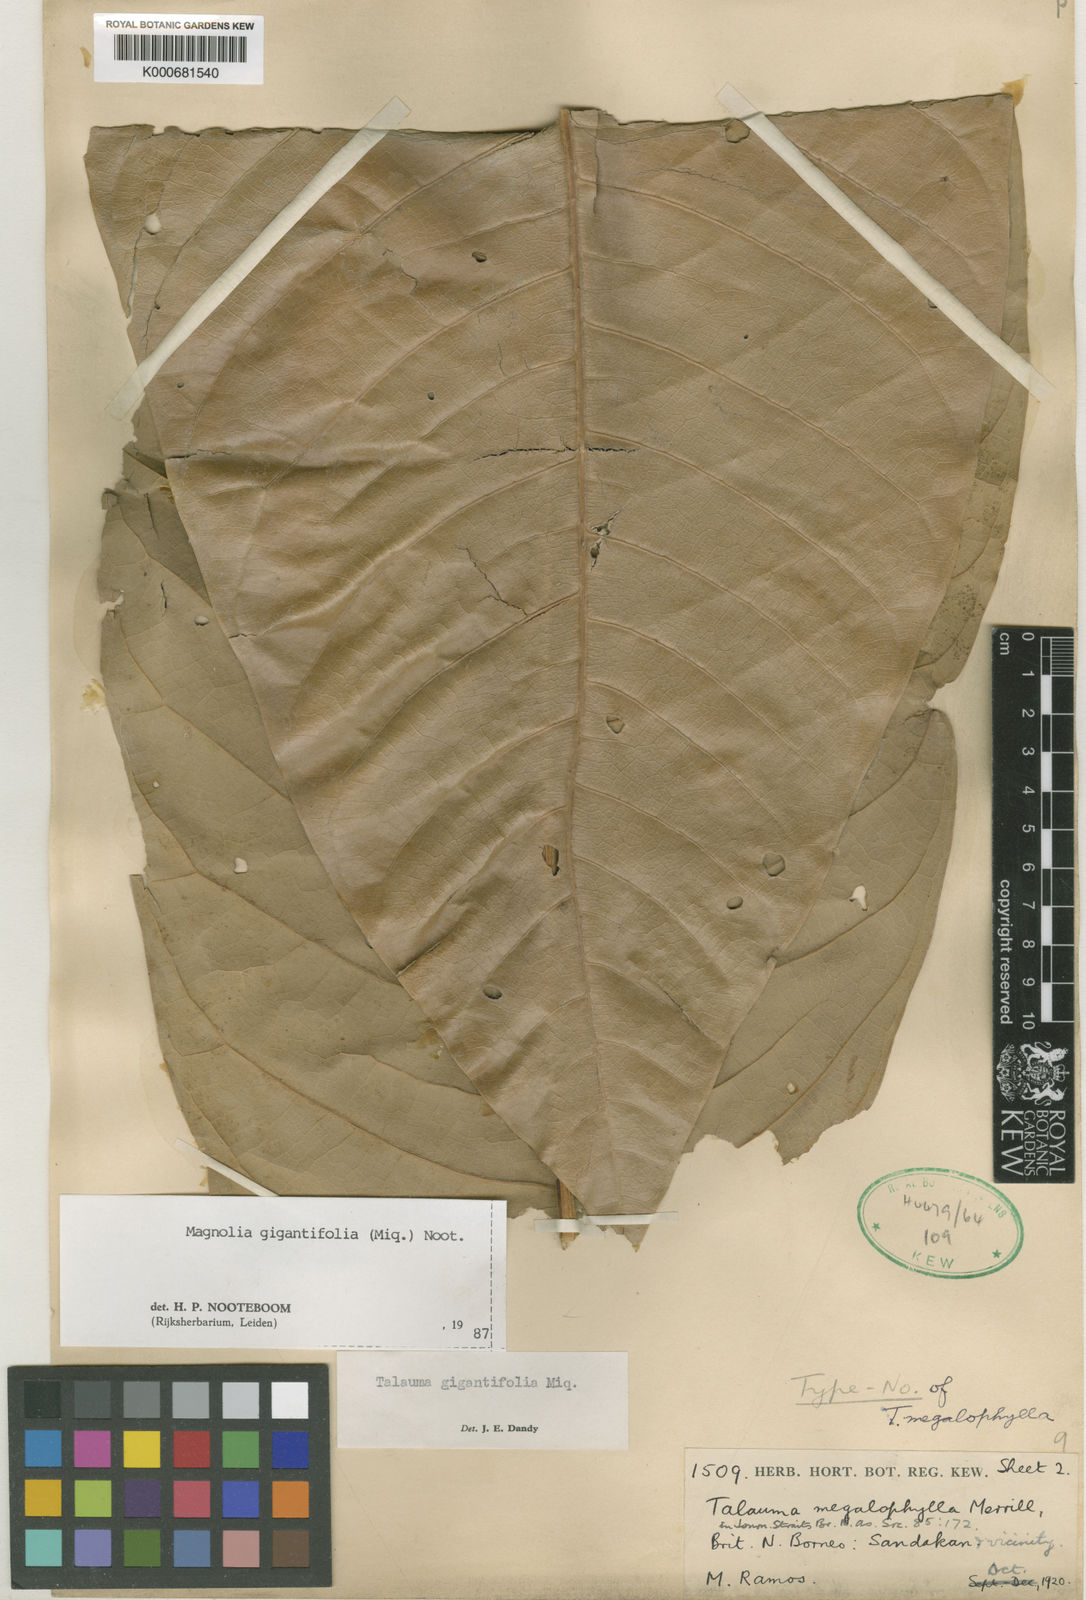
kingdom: Plantae
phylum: Tracheophyta
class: Magnoliopsida
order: Magnoliales
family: Magnoliaceae
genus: Magnolia
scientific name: Magnolia gigantifolia
